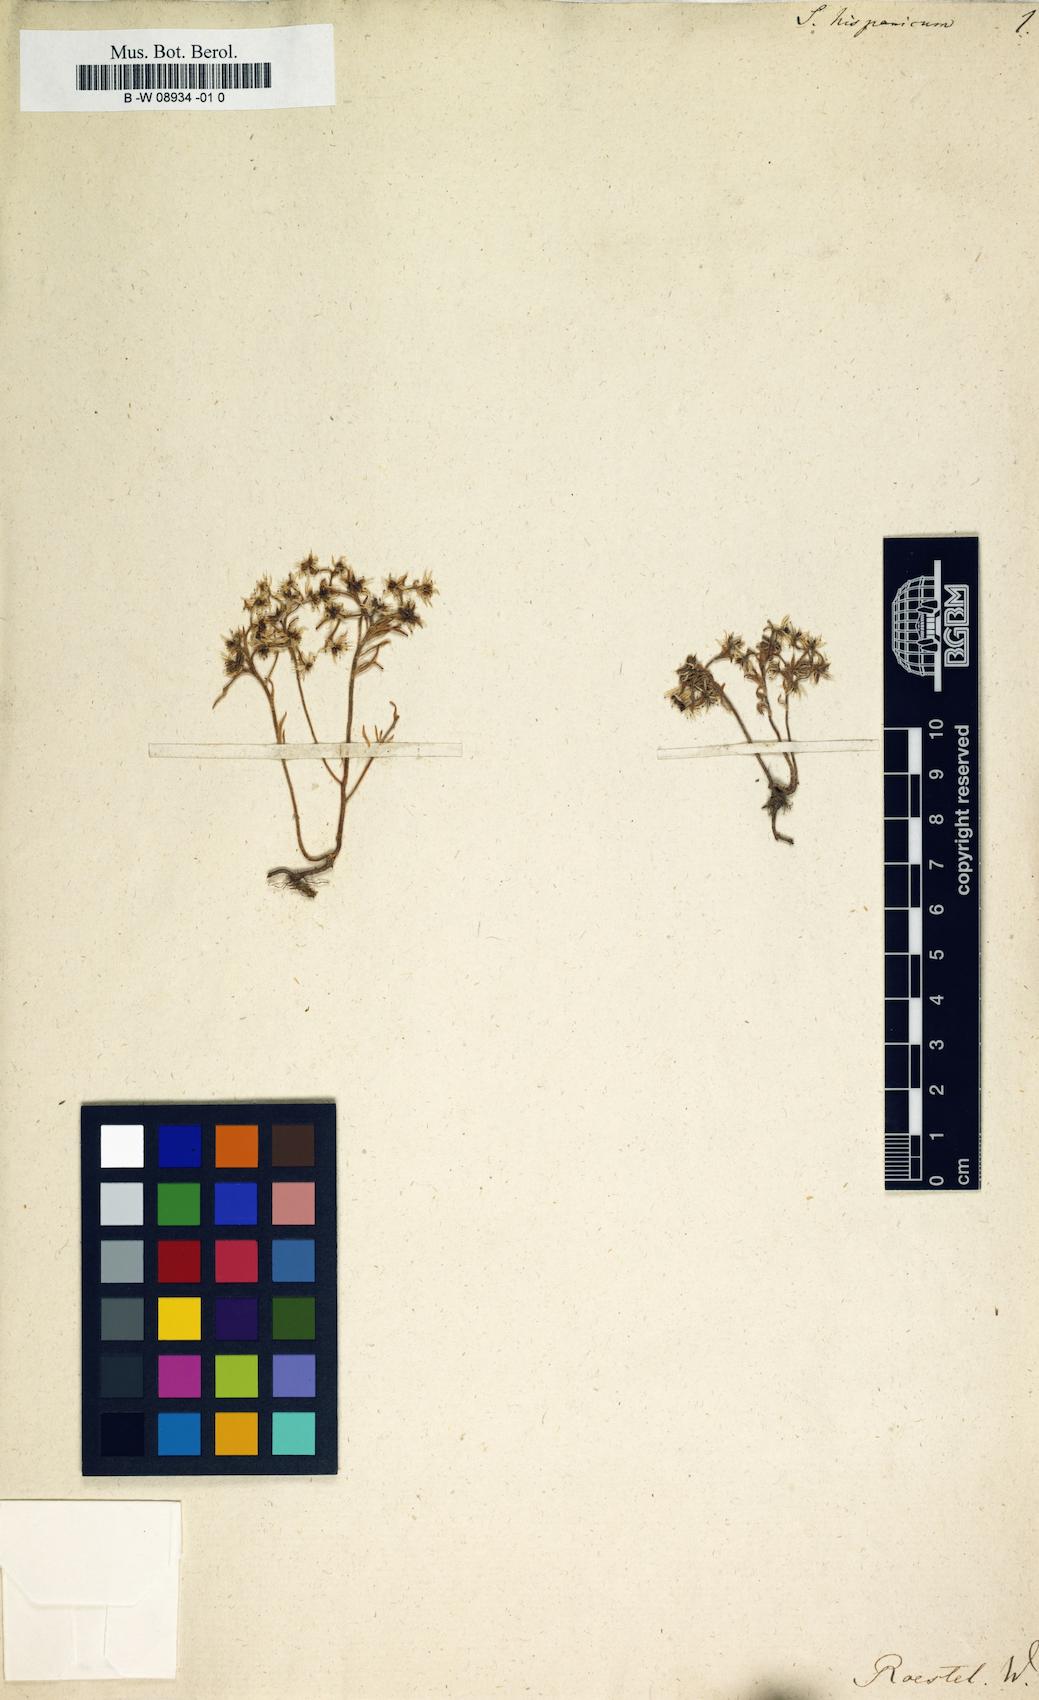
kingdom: Plantae
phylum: Tracheophyta
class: Magnoliopsida
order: Saxifragales
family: Crassulaceae
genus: Sedum
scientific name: Sedum hispanicum
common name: Spanish stonecrop
